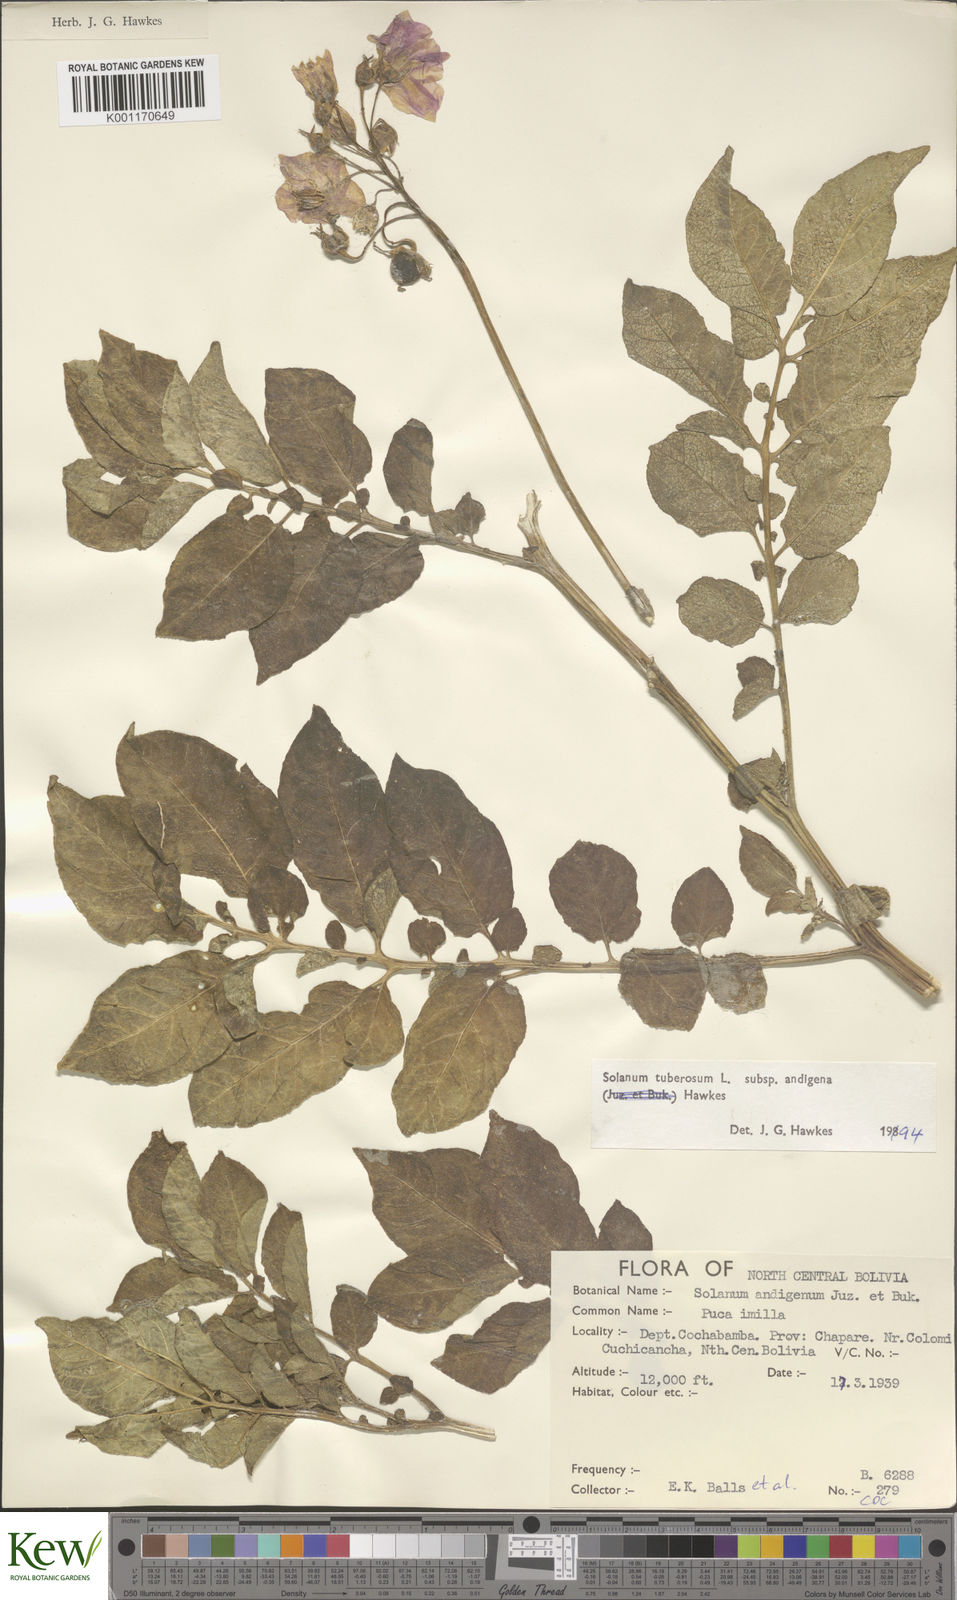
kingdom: Plantae
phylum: Tracheophyta
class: Magnoliopsida
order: Solanales
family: Solanaceae
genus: Solanum
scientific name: Solanum tuberosum
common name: Potato
